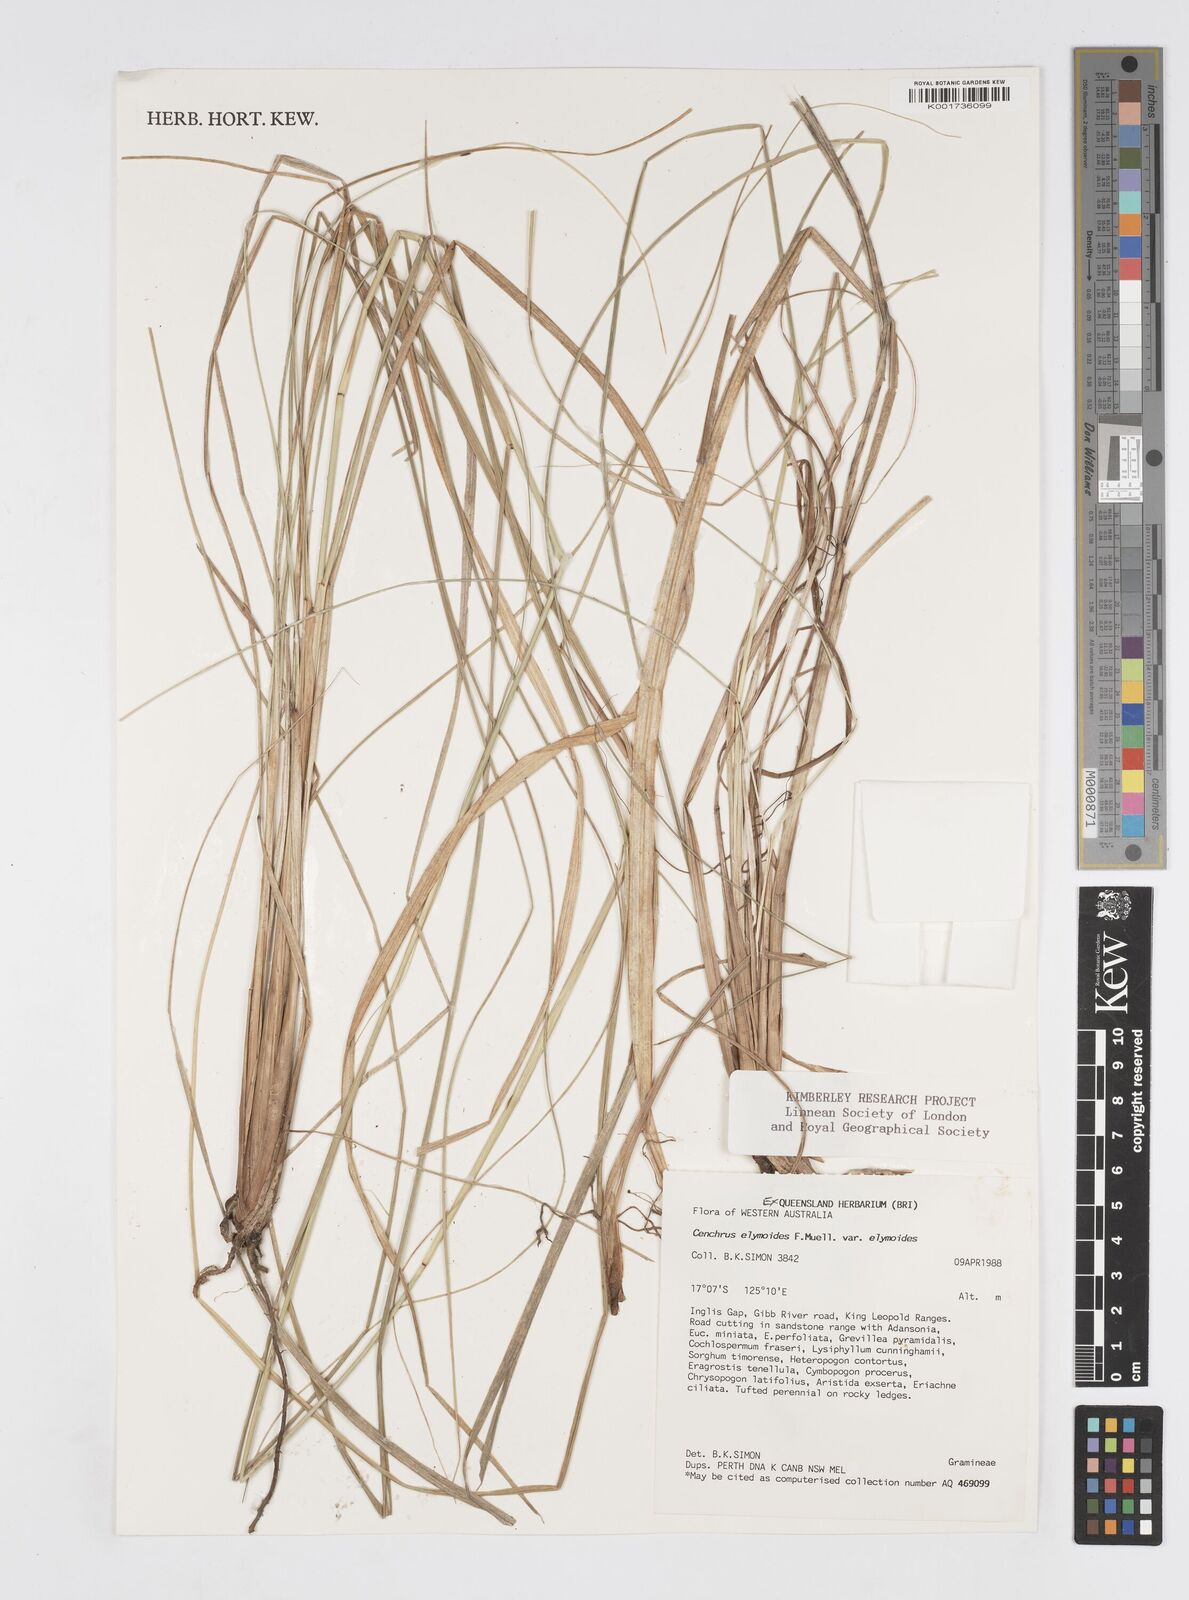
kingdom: Plantae
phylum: Tracheophyta
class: Liliopsida
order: Poales
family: Poaceae
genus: Cenchrus
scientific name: Cenchrus elymoides
